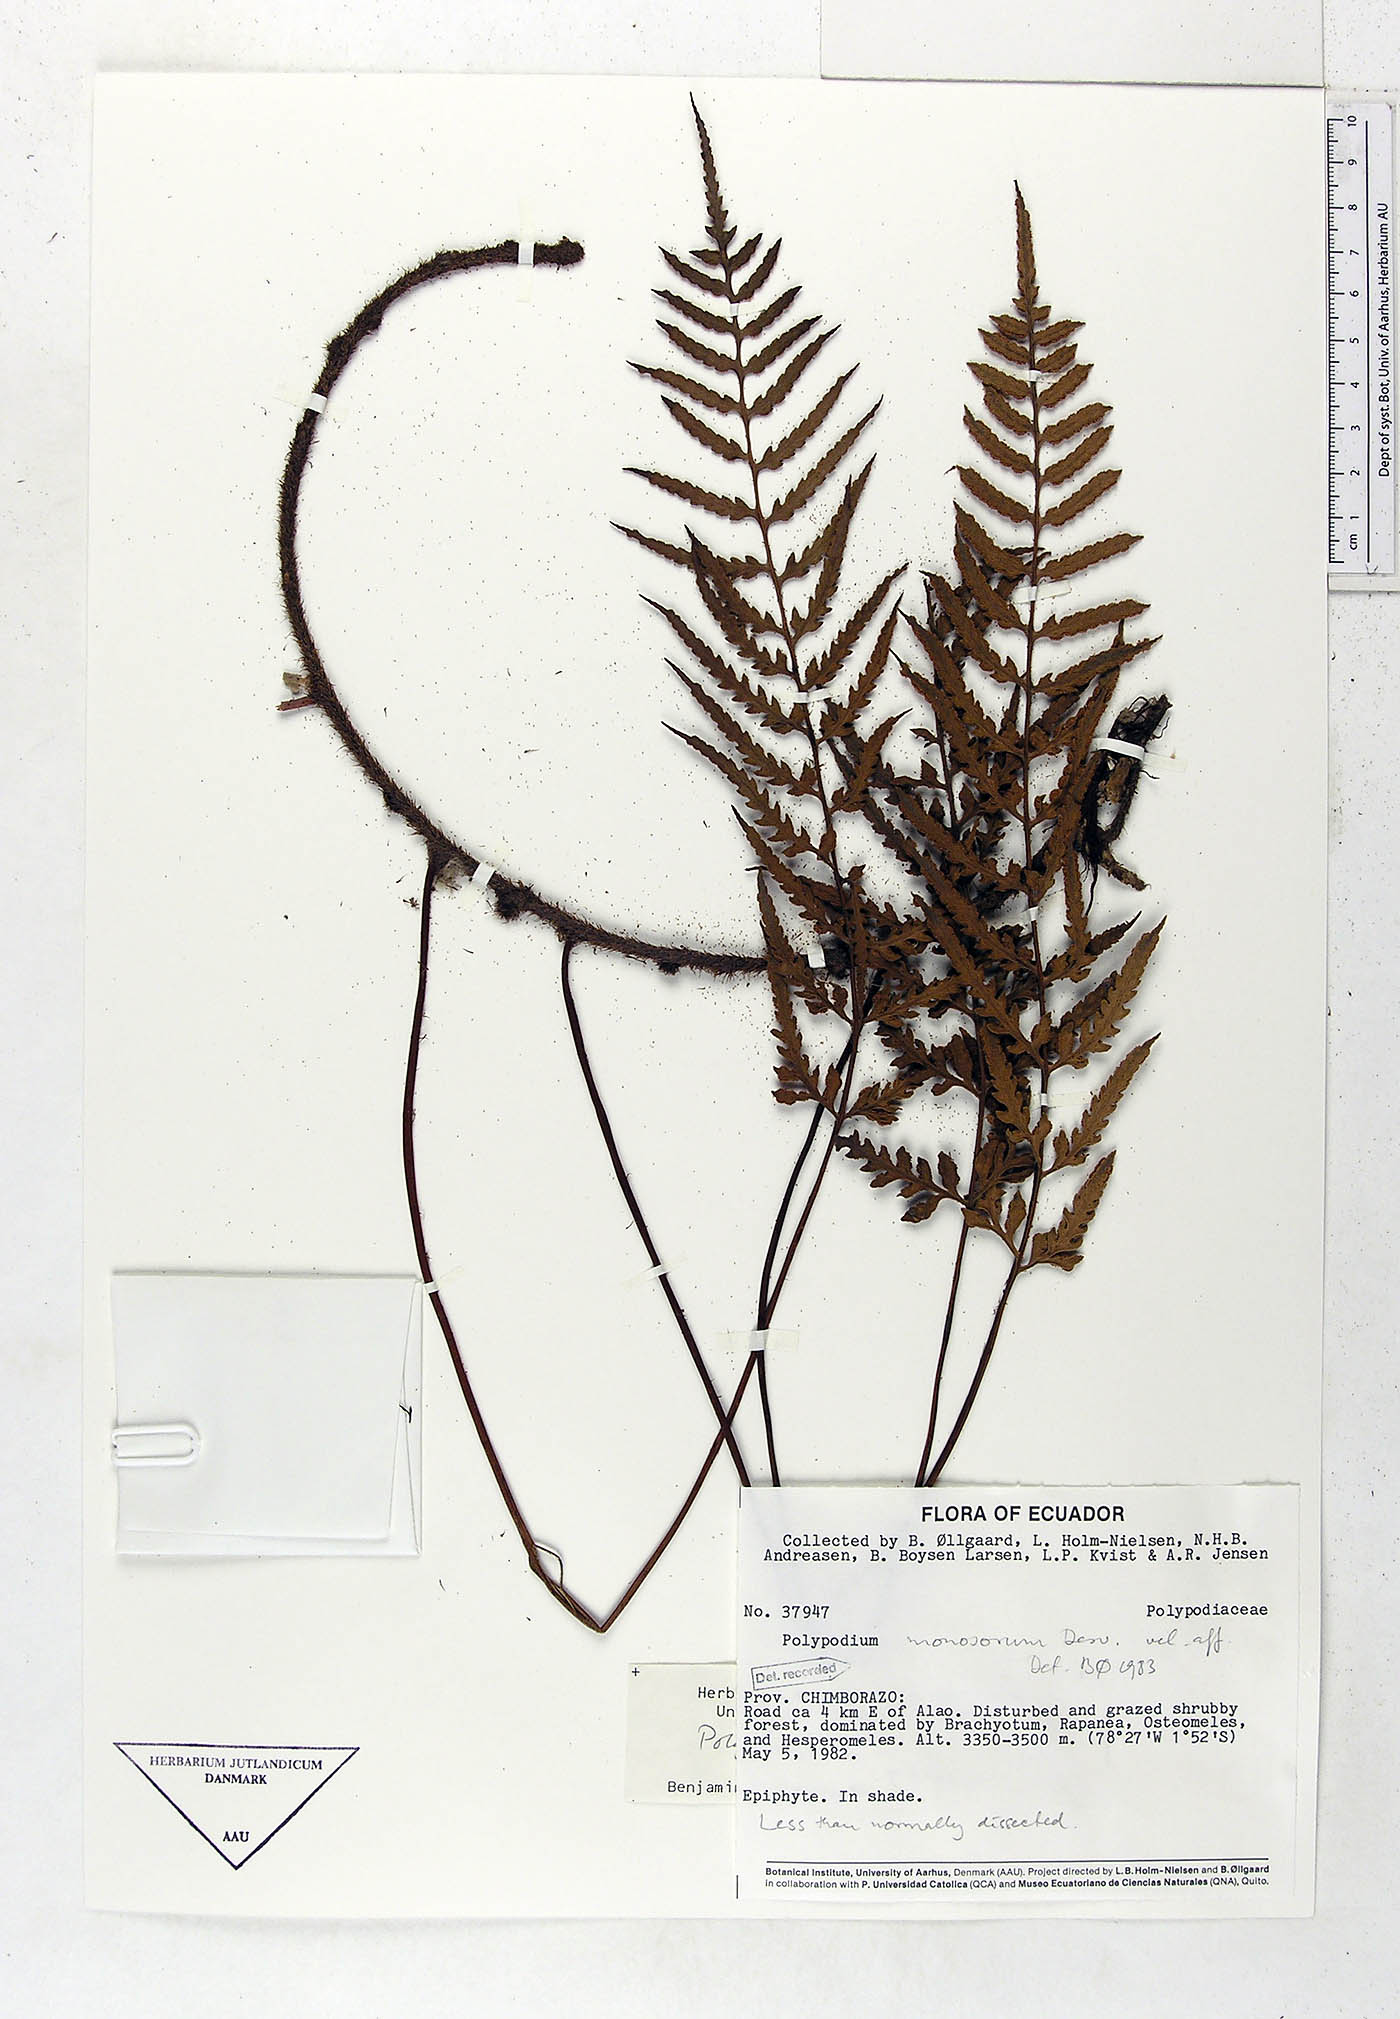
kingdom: Plantae
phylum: Tracheophyta
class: Polypodiopsida
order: Polypodiales
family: Polypodiaceae
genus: Pleopeltis
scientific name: Pleopeltis monosora
